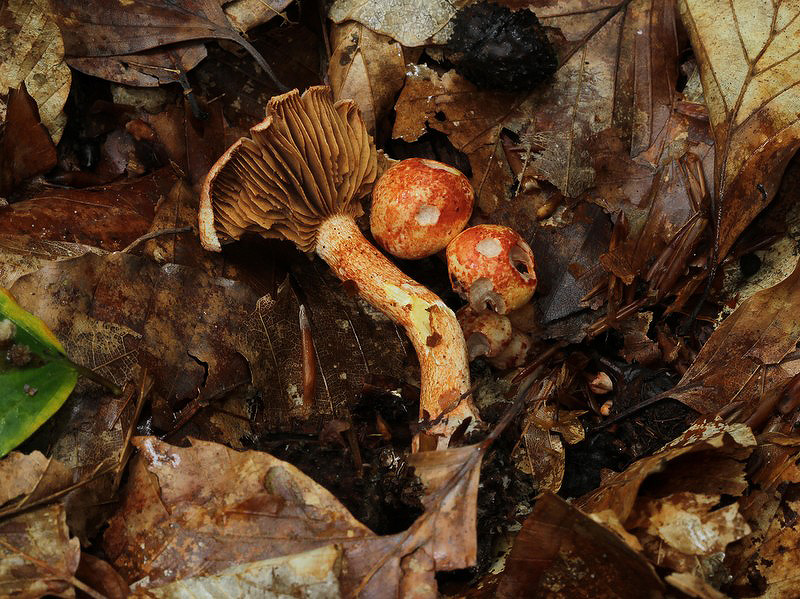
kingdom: Fungi
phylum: Basidiomycota
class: Agaricomycetes
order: Agaricales
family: Cortinariaceae
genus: Cortinarius
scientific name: Cortinarius bolaris
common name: cinnoberskællet slørhat
